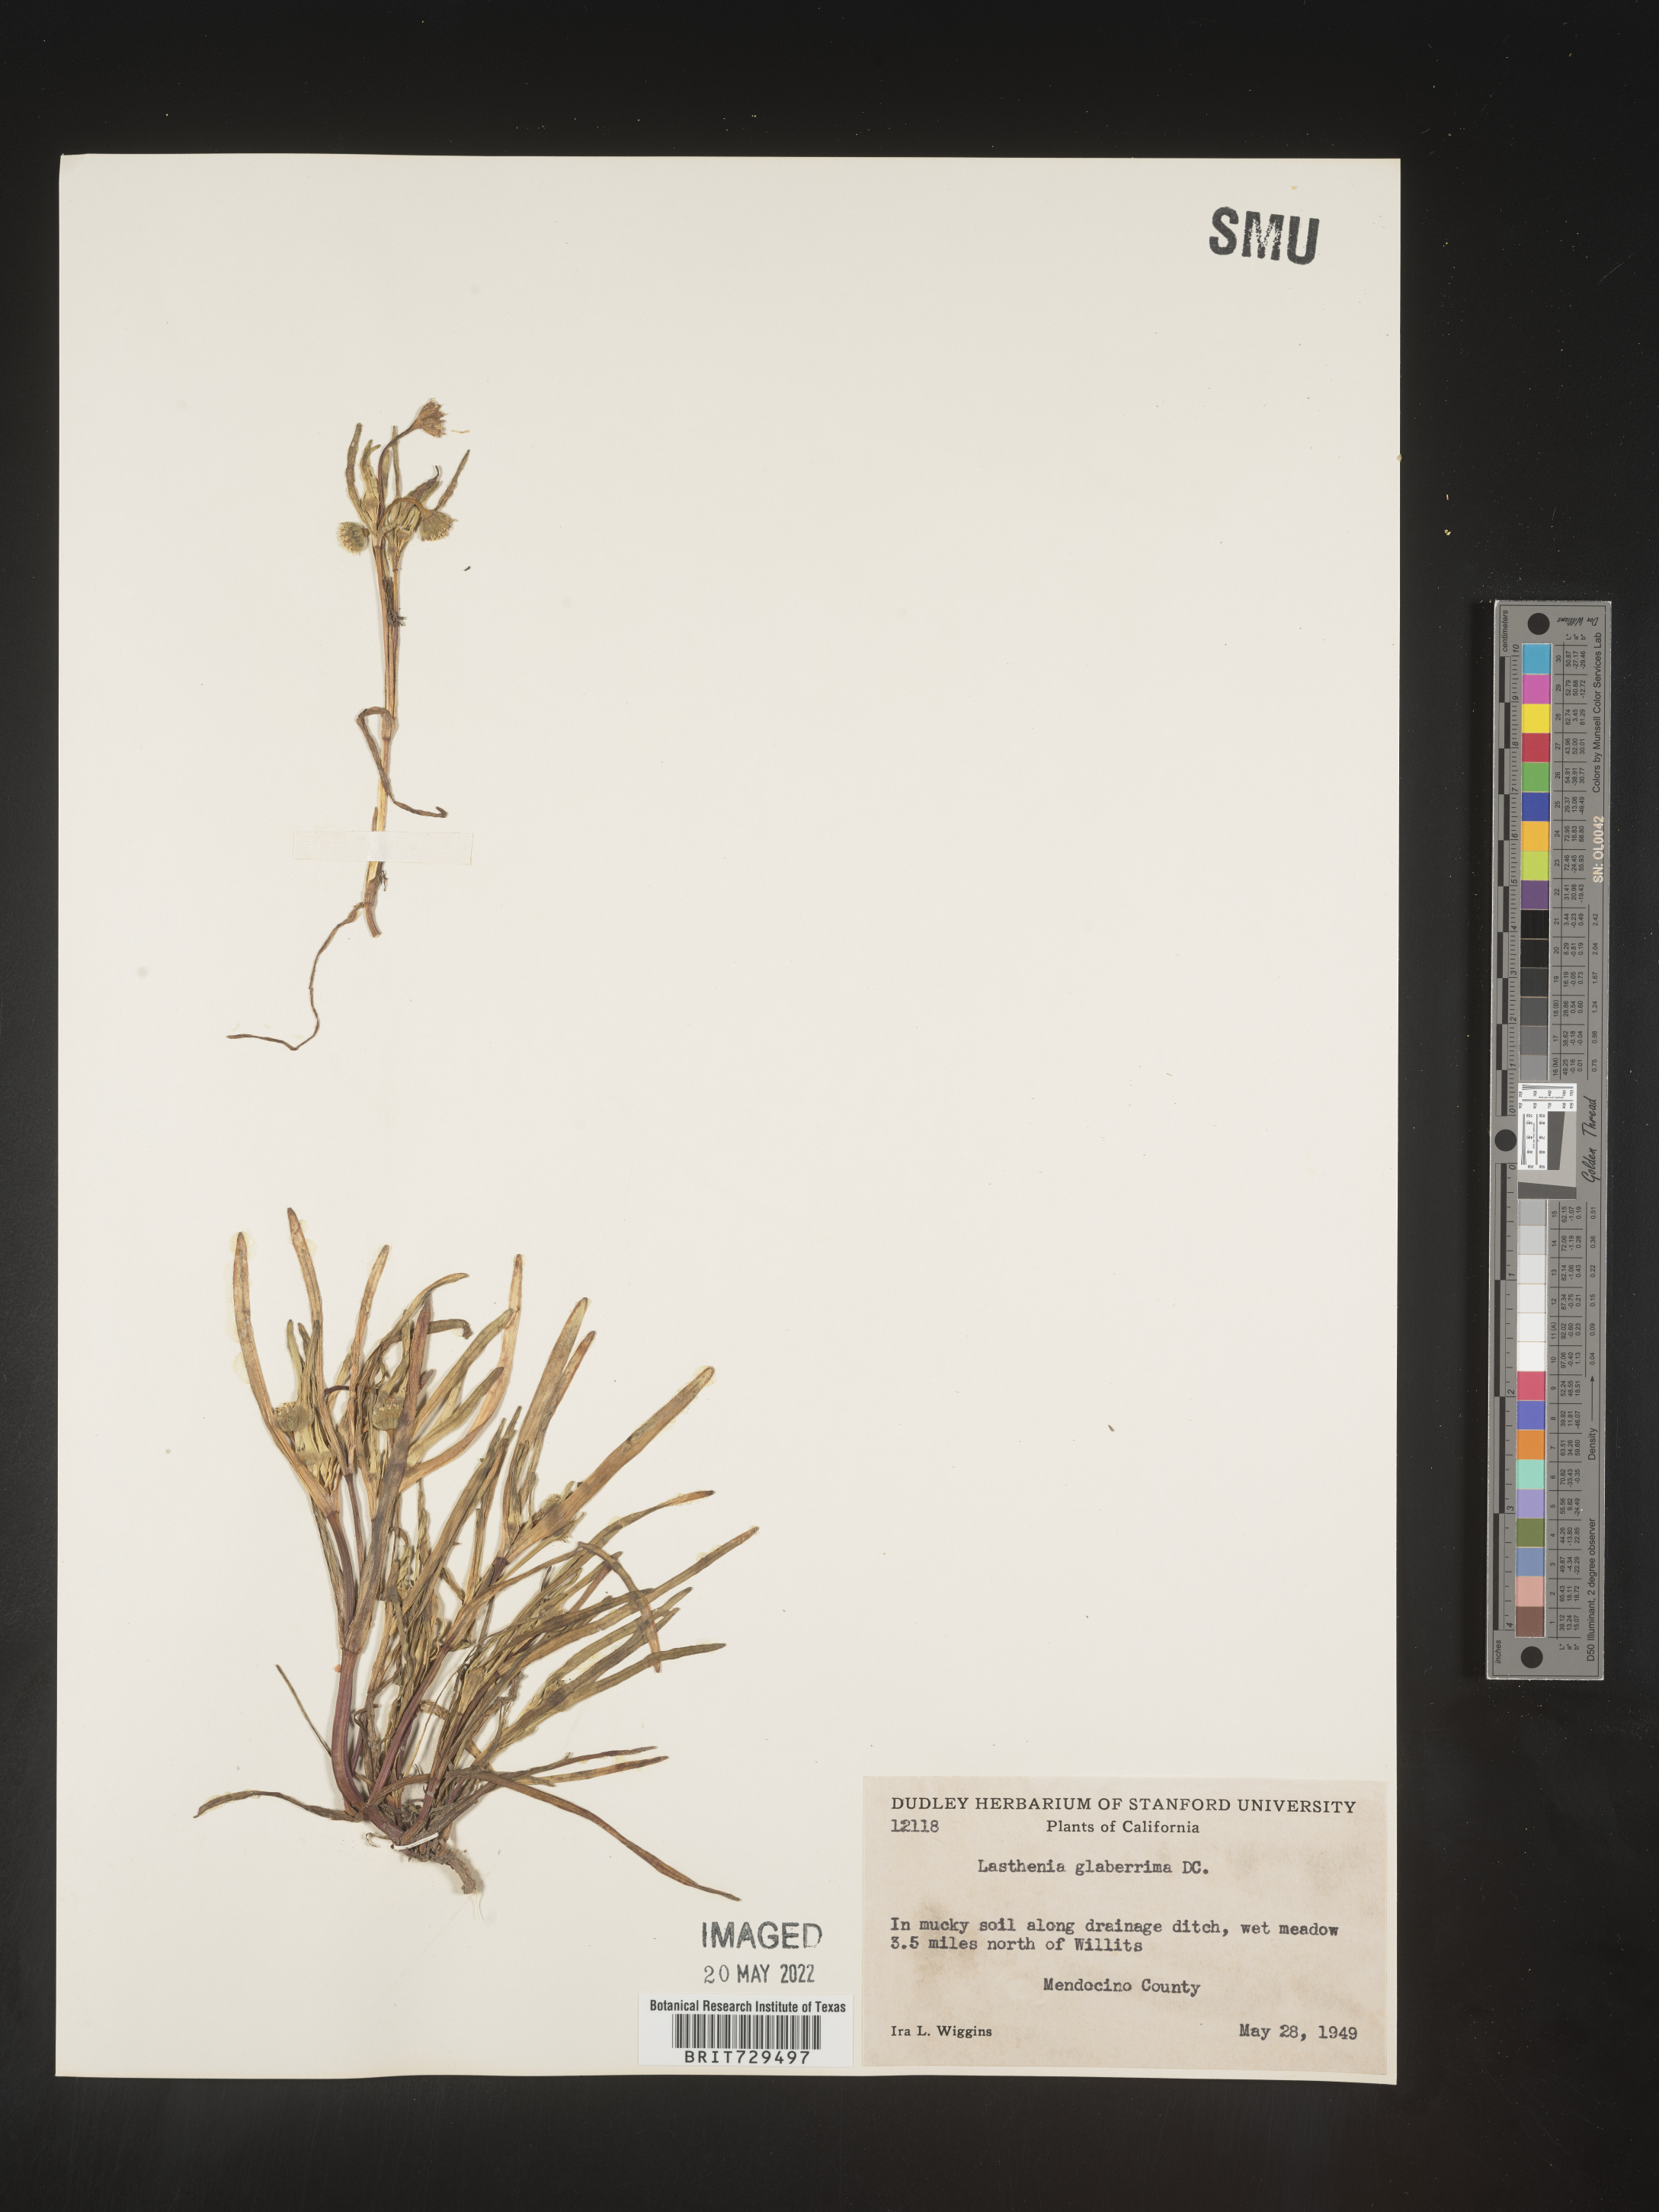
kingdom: Plantae
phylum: Tracheophyta
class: Magnoliopsida
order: Asterales
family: Asteraceae
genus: Lasthenia
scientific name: Lasthenia
